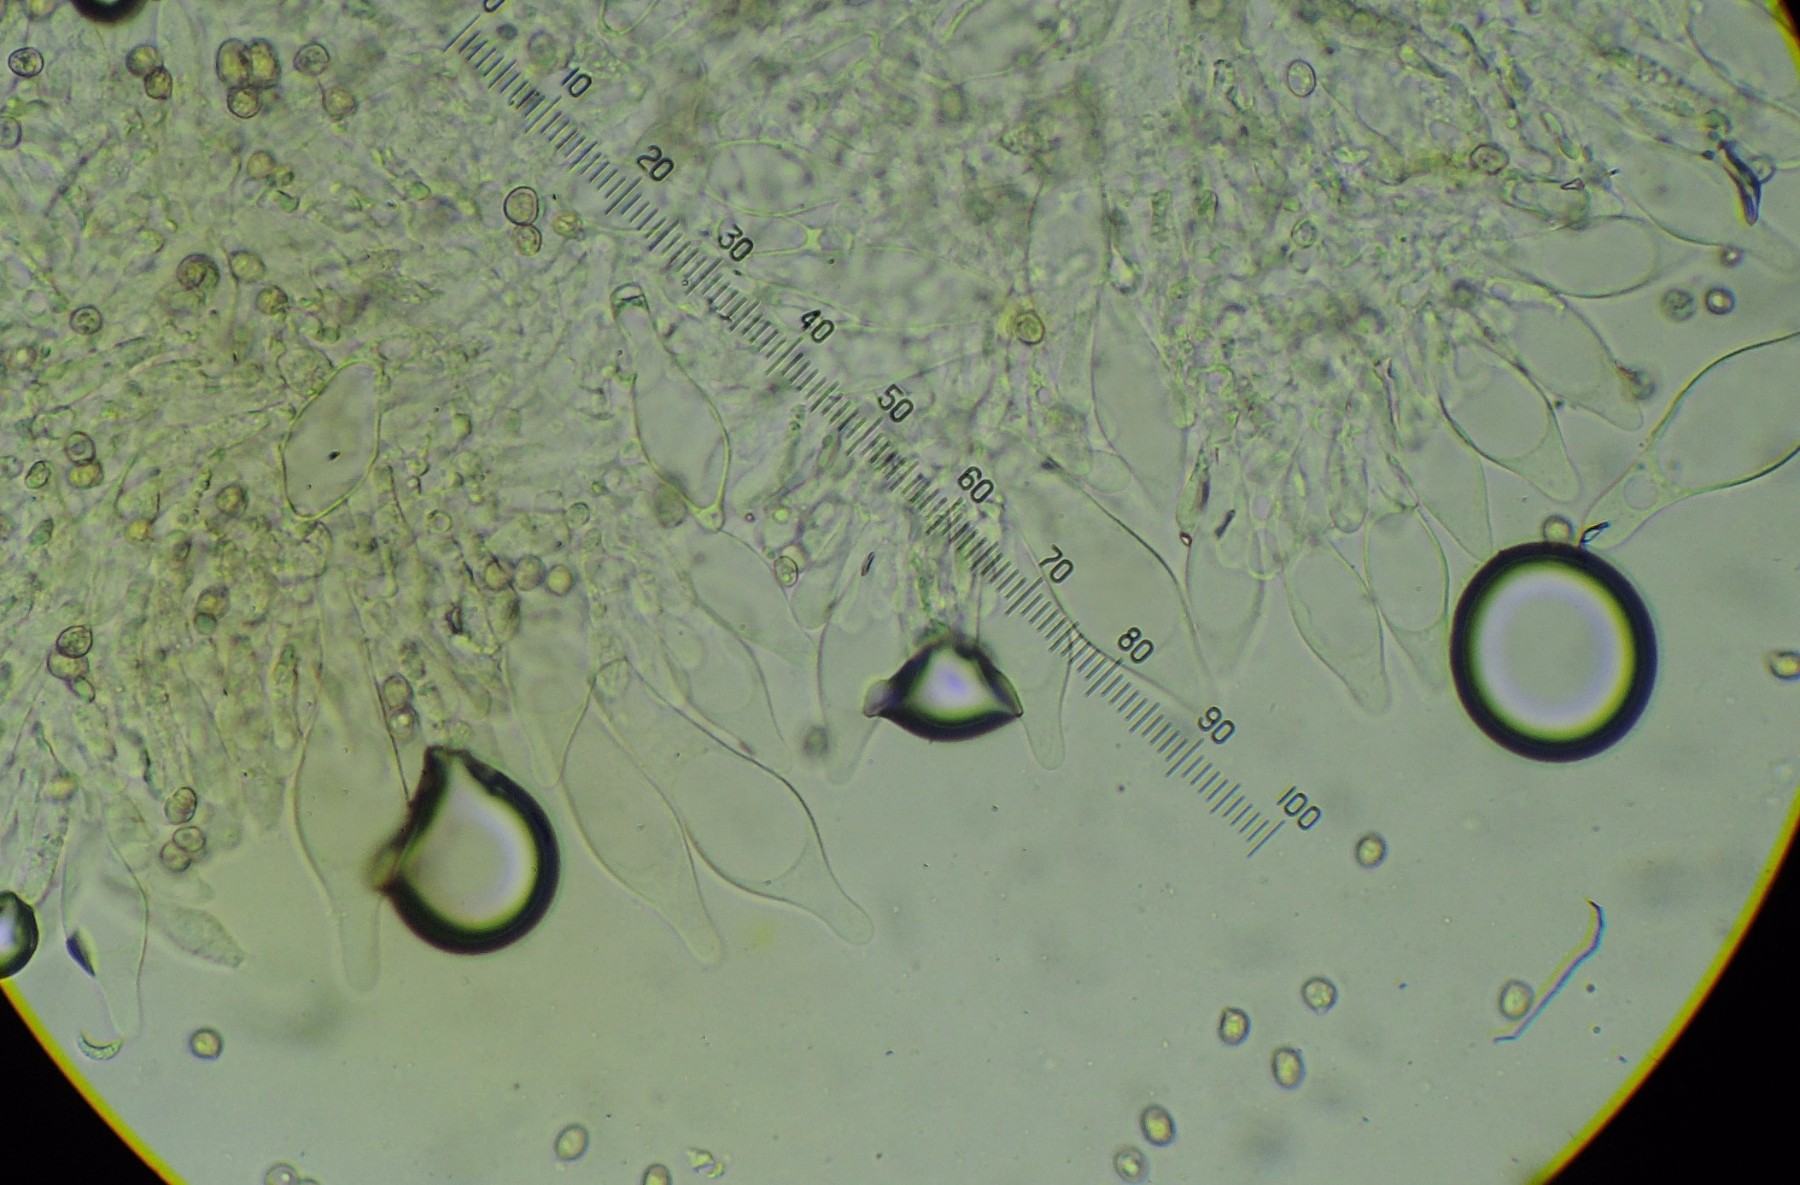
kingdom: Fungi
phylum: Basidiomycota
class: Agaricomycetes
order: Agaricales
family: Pluteaceae
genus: Pluteus
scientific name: Pluteus phlebophorus
